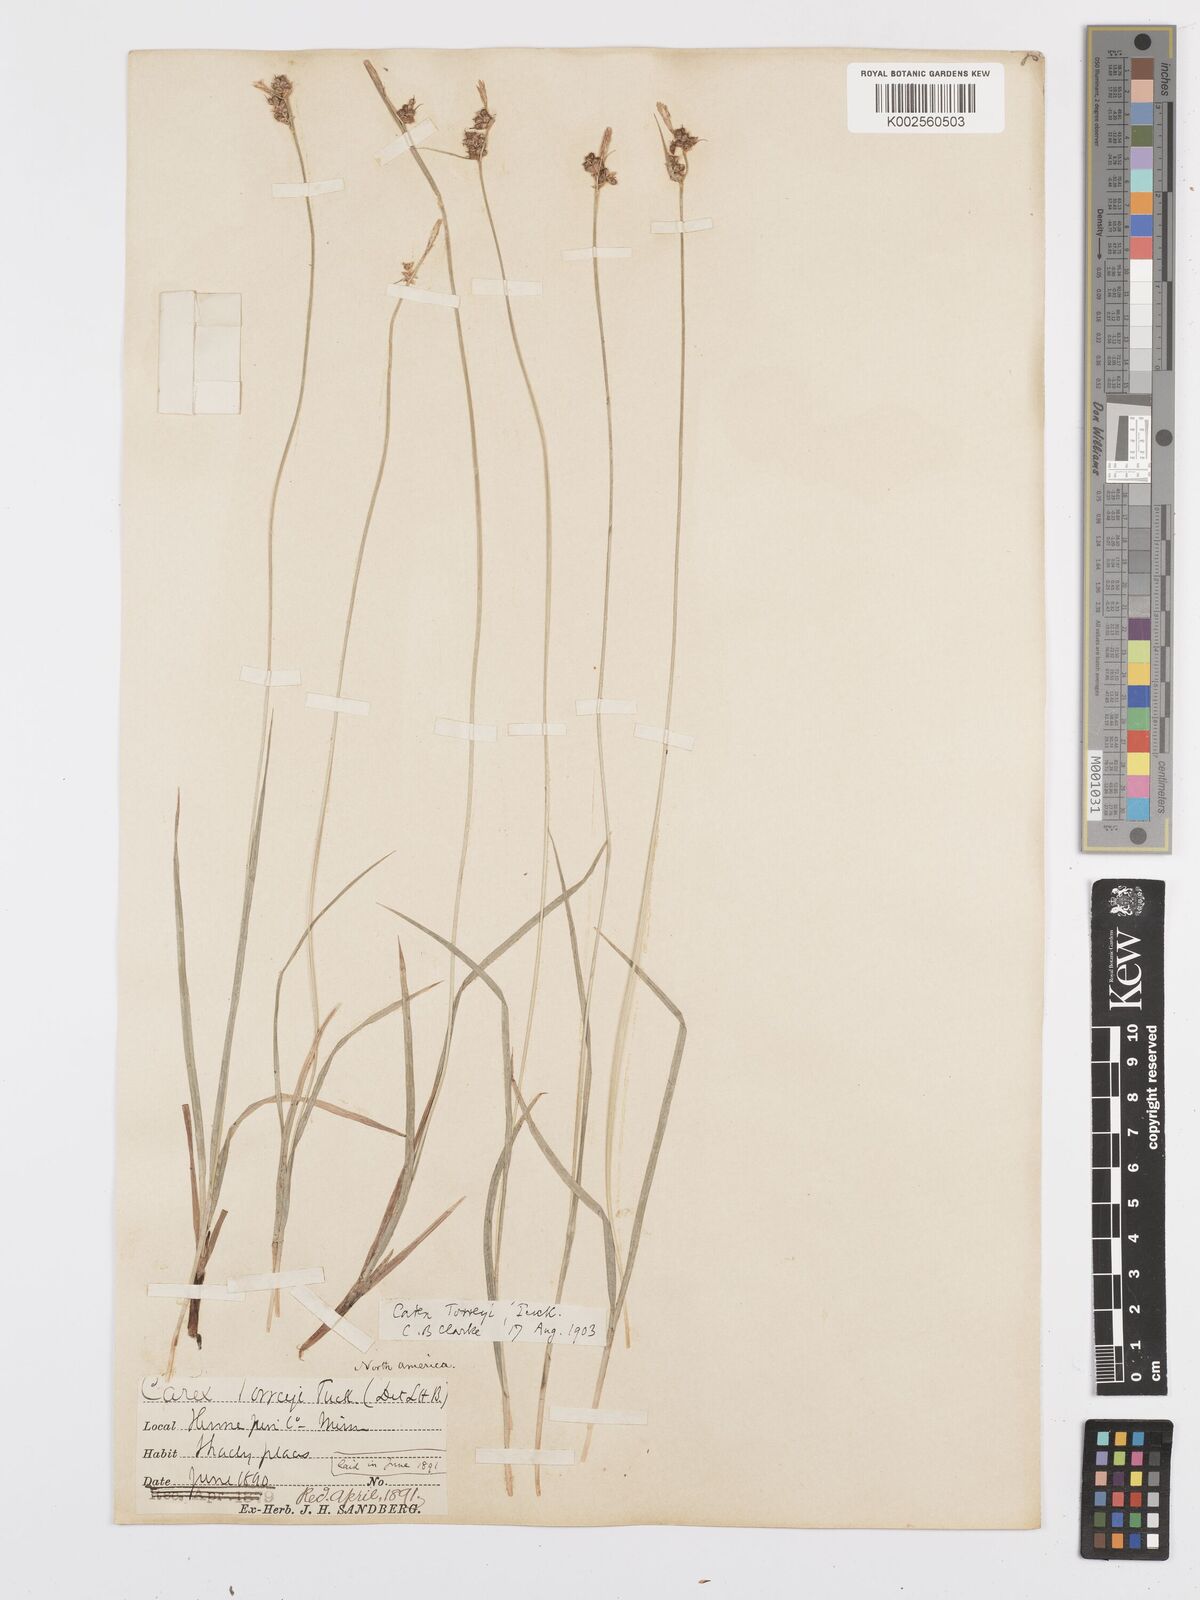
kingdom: Plantae
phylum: Tracheophyta
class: Liliopsida
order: Poales
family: Cyperaceae
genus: Carex
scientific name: Carex torreyi
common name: Torrey's sedge
